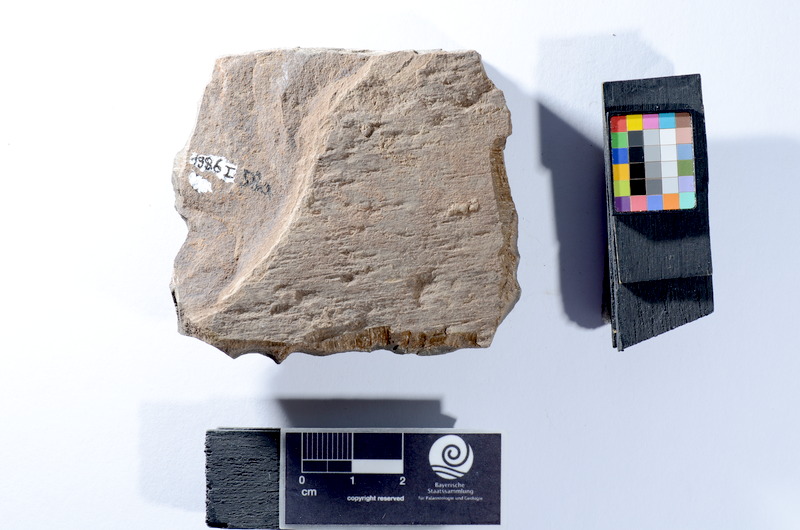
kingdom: Animalia
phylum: Chordata
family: Leptolepididae
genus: Leptolepis
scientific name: Leptolepis coryphaenoides
